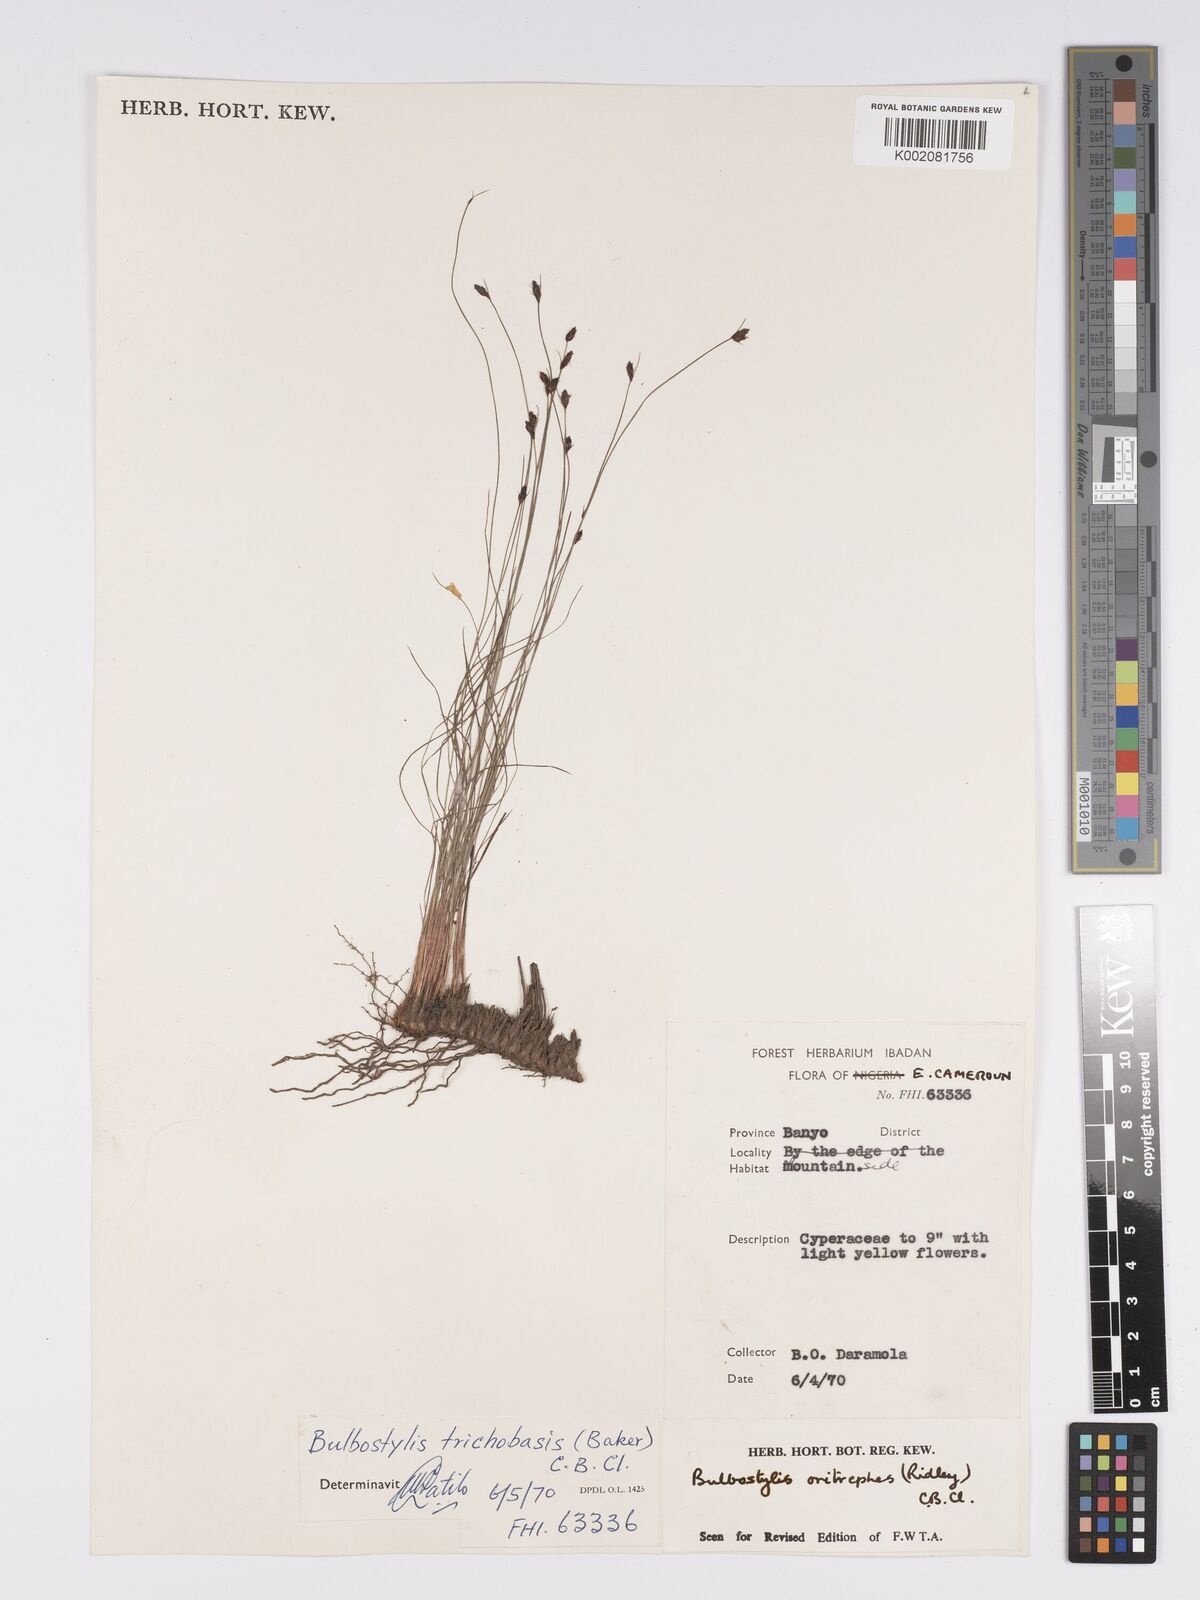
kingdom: Plantae
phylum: Tracheophyta
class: Liliopsida
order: Poales
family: Cyperaceae
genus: Bulbostylis
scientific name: Bulbostylis oritrephes
